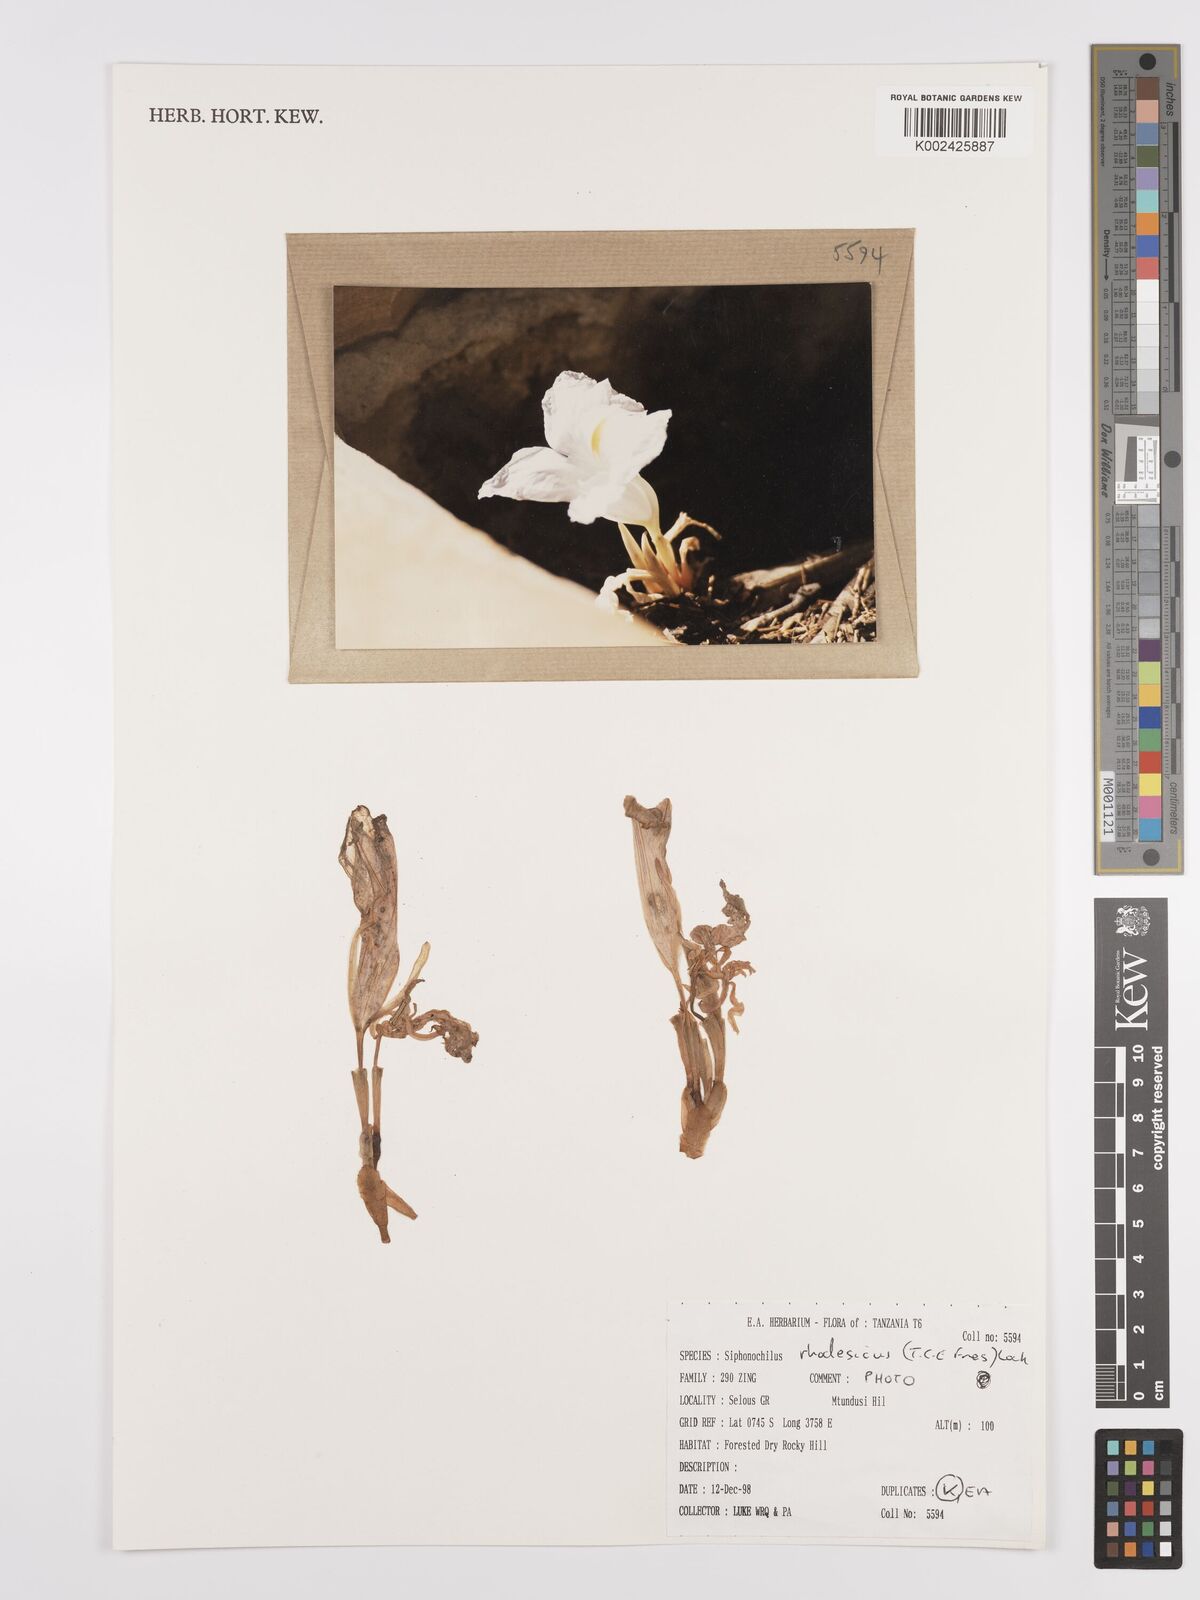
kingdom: Plantae
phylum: Tracheophyta
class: Liliopsida
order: Zingiberales
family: Zingiberaceae
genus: Siphonochilus
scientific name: Siphonochilus rhodesicus
